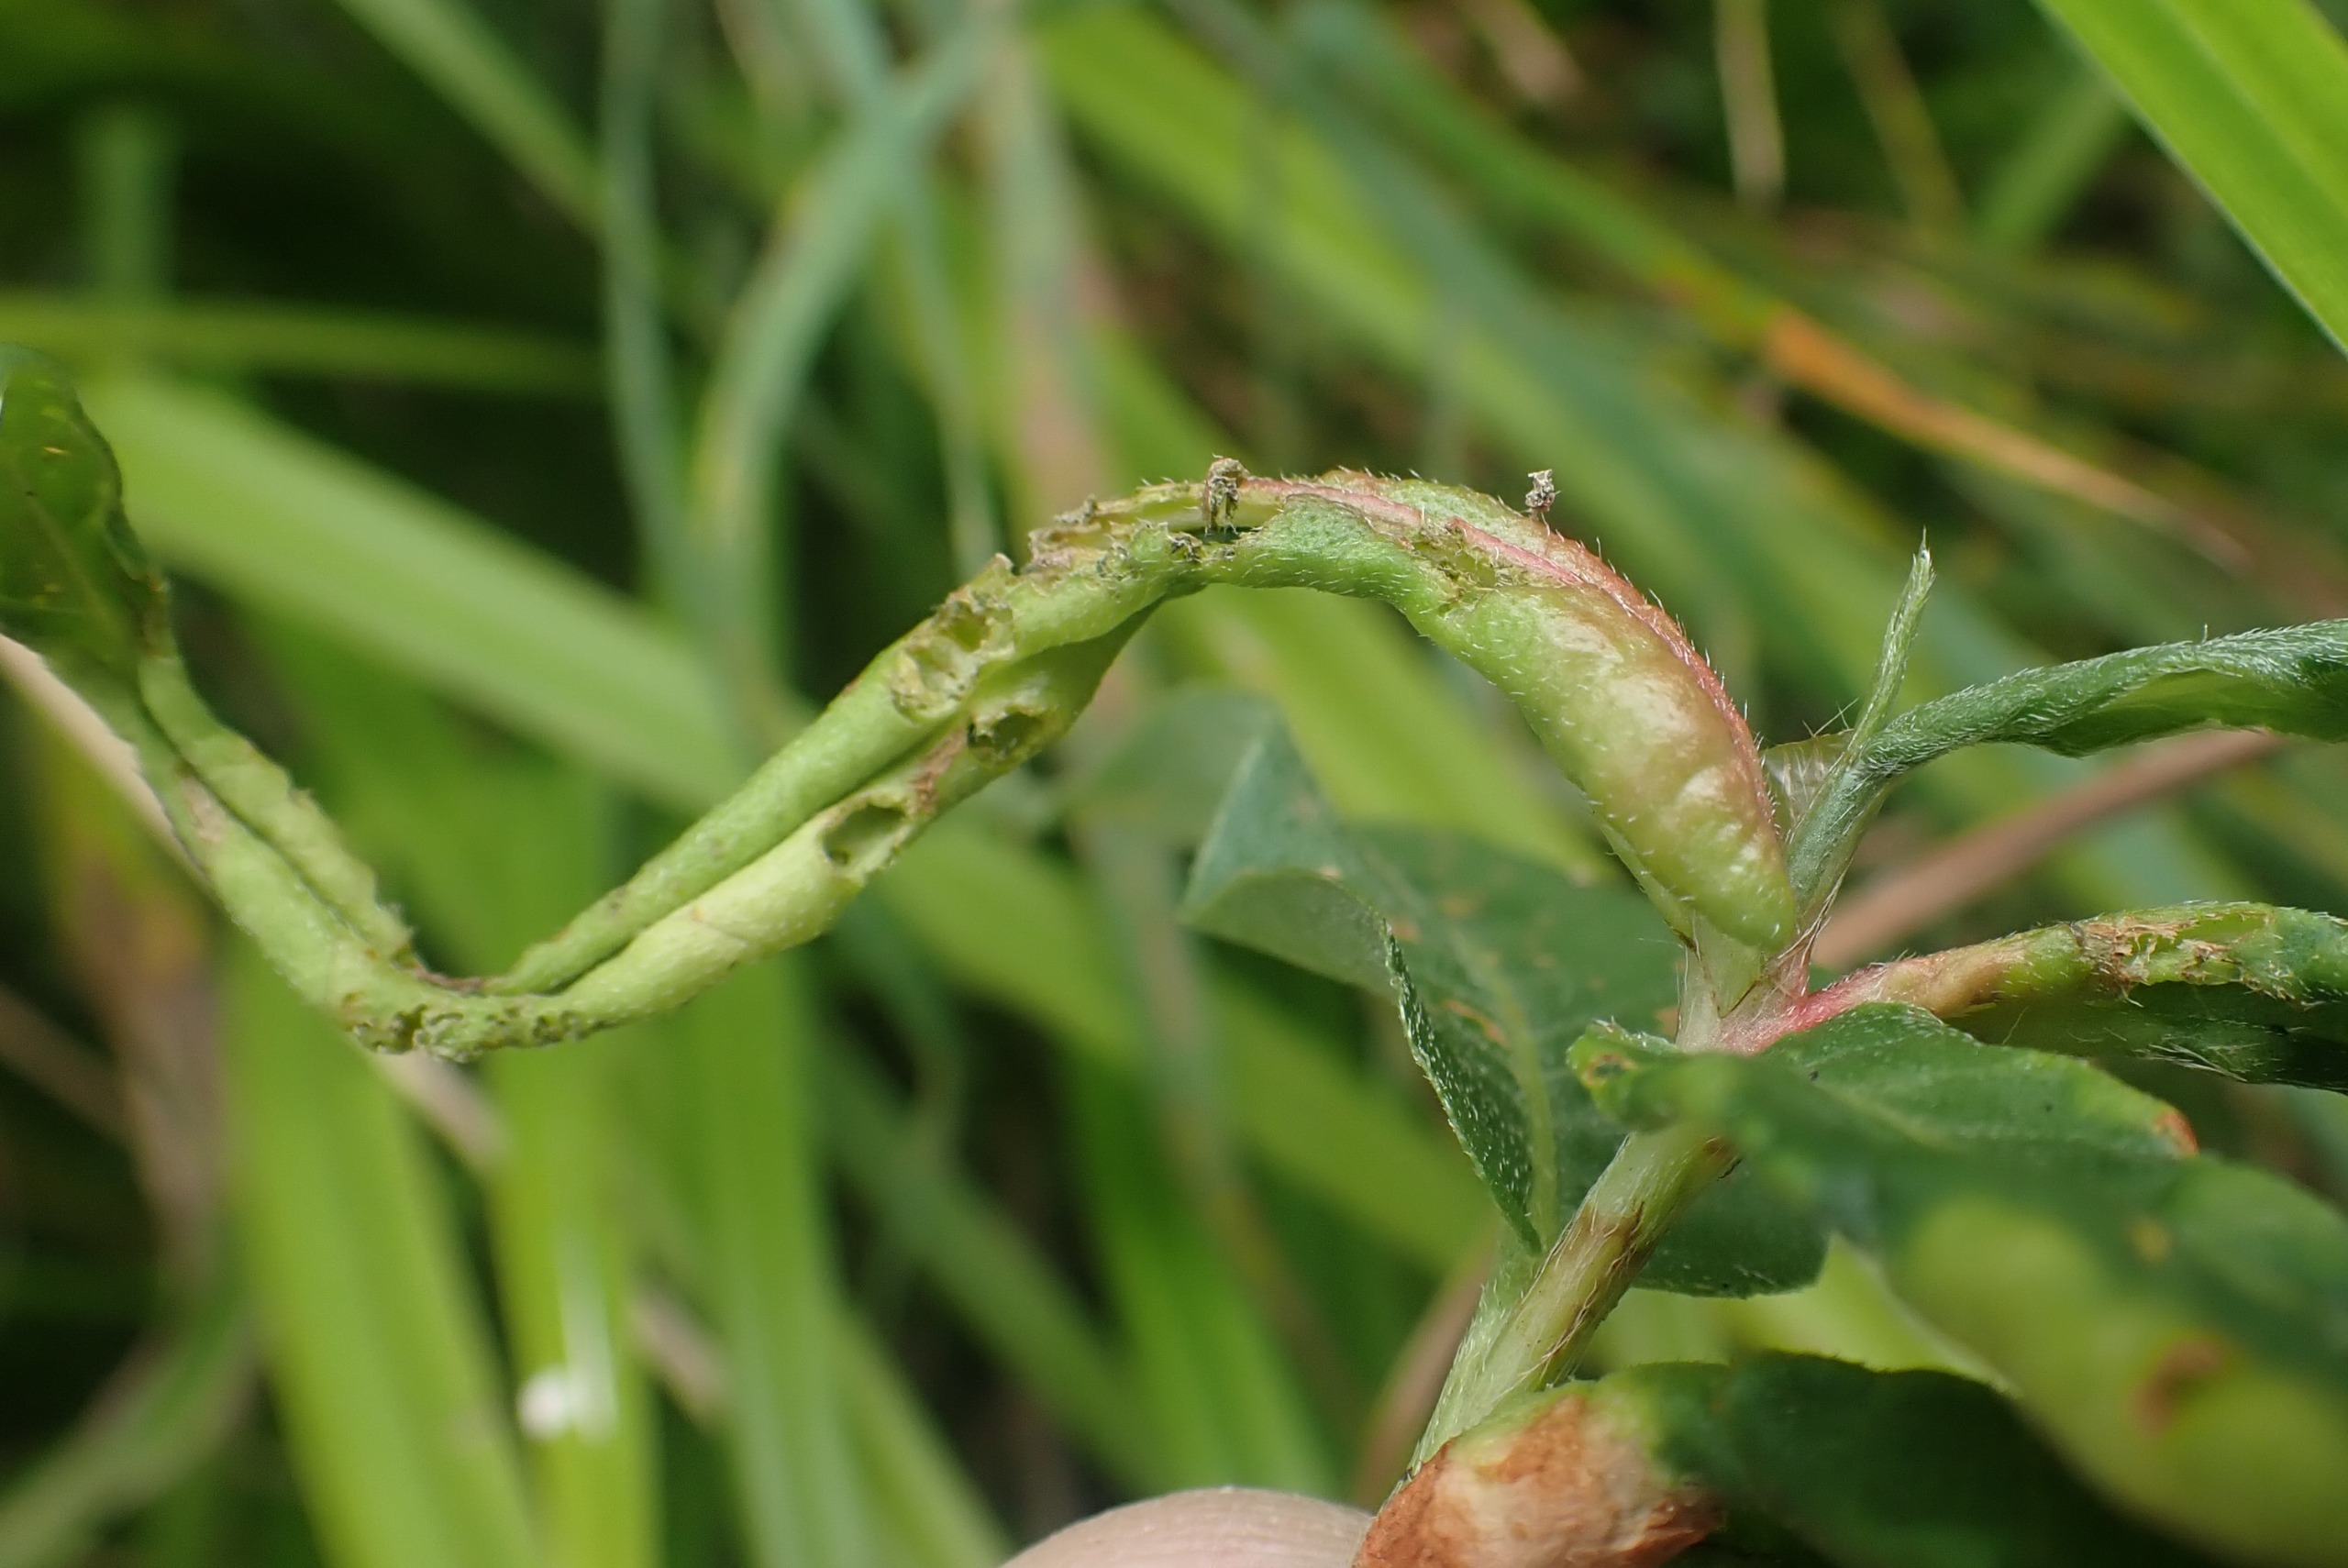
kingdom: Animalia
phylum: Arthropoda
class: Insecta
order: Diptera
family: Cecidomyiidae
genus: Wachtliella
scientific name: Wachtliella persicariae
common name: Pileurtgalmyg
